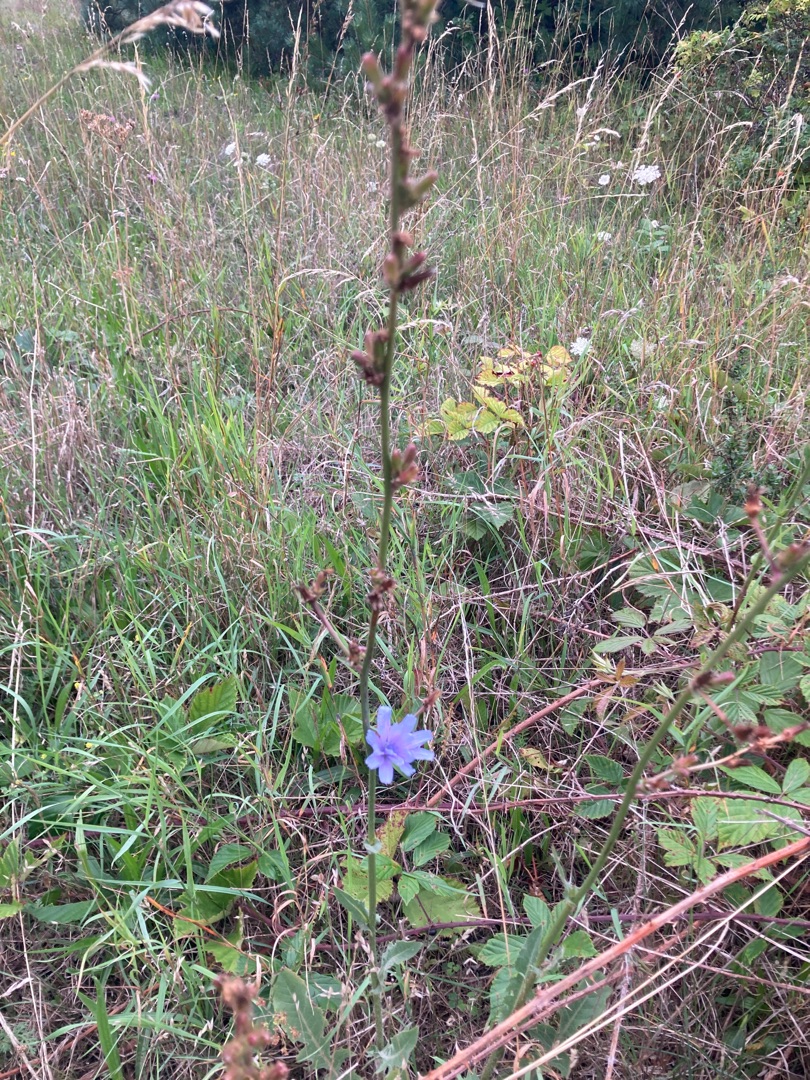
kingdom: Plantae
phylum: Tracheophyta
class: Magnoliopsida
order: Asterales
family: Asteraceae
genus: Cichorium
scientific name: Cichorium intybus
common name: Cikorie
